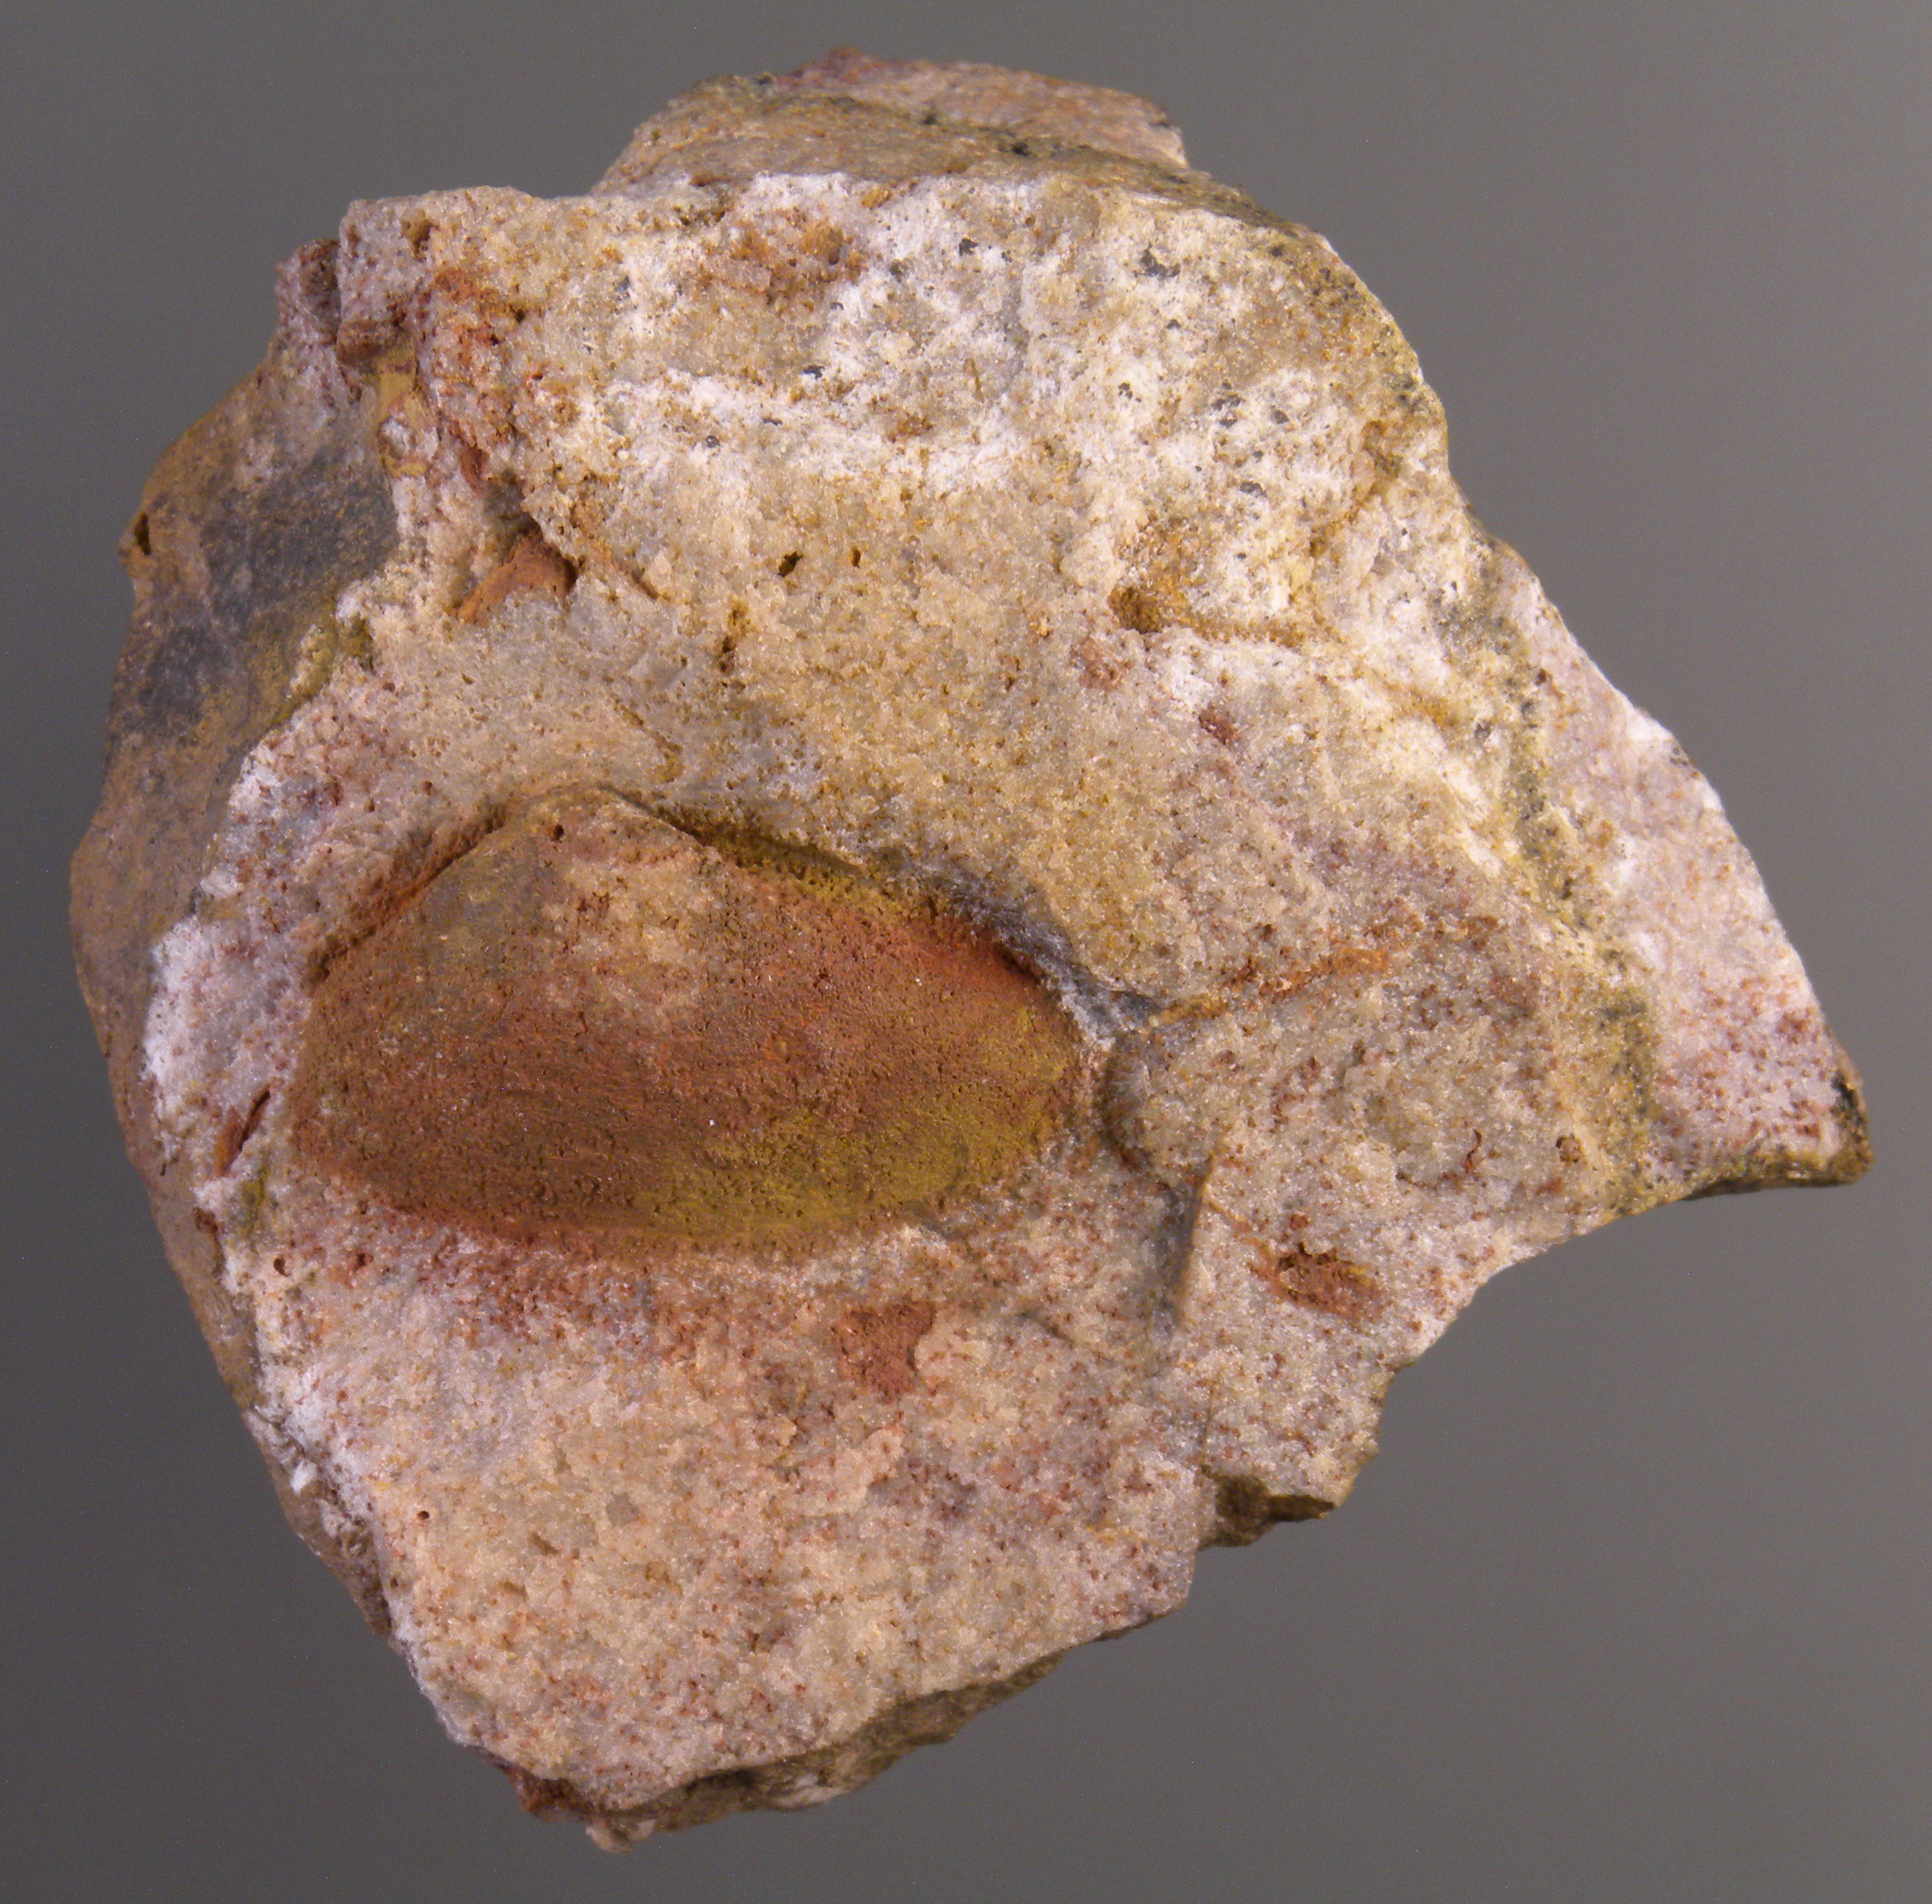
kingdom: Animalia
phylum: Mollusca
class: Bivalvia
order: Nuculanida
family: Nuculanidae
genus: Phestia
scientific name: Phestia
